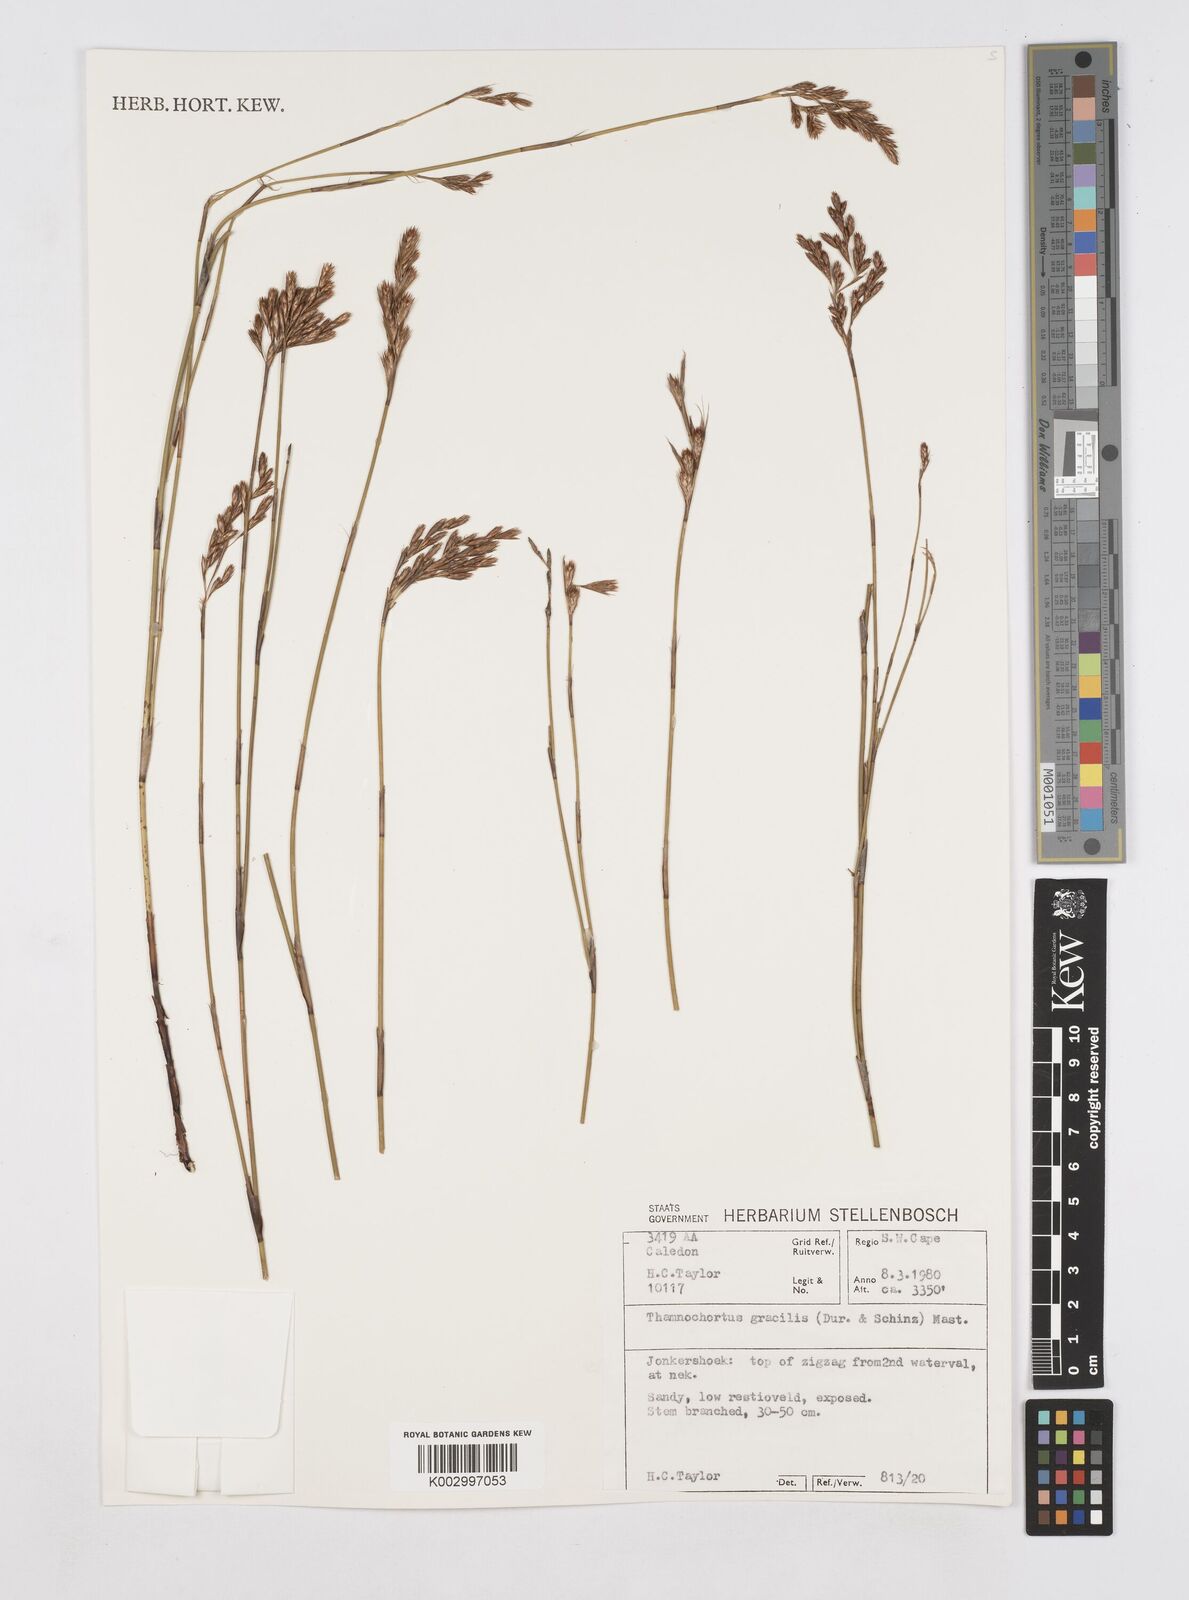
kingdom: Plantae
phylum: Tracheophyta
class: Liliopsida
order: Poales
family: Restionaceae
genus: Thamnochortus
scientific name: Thamnochortus gracilis
